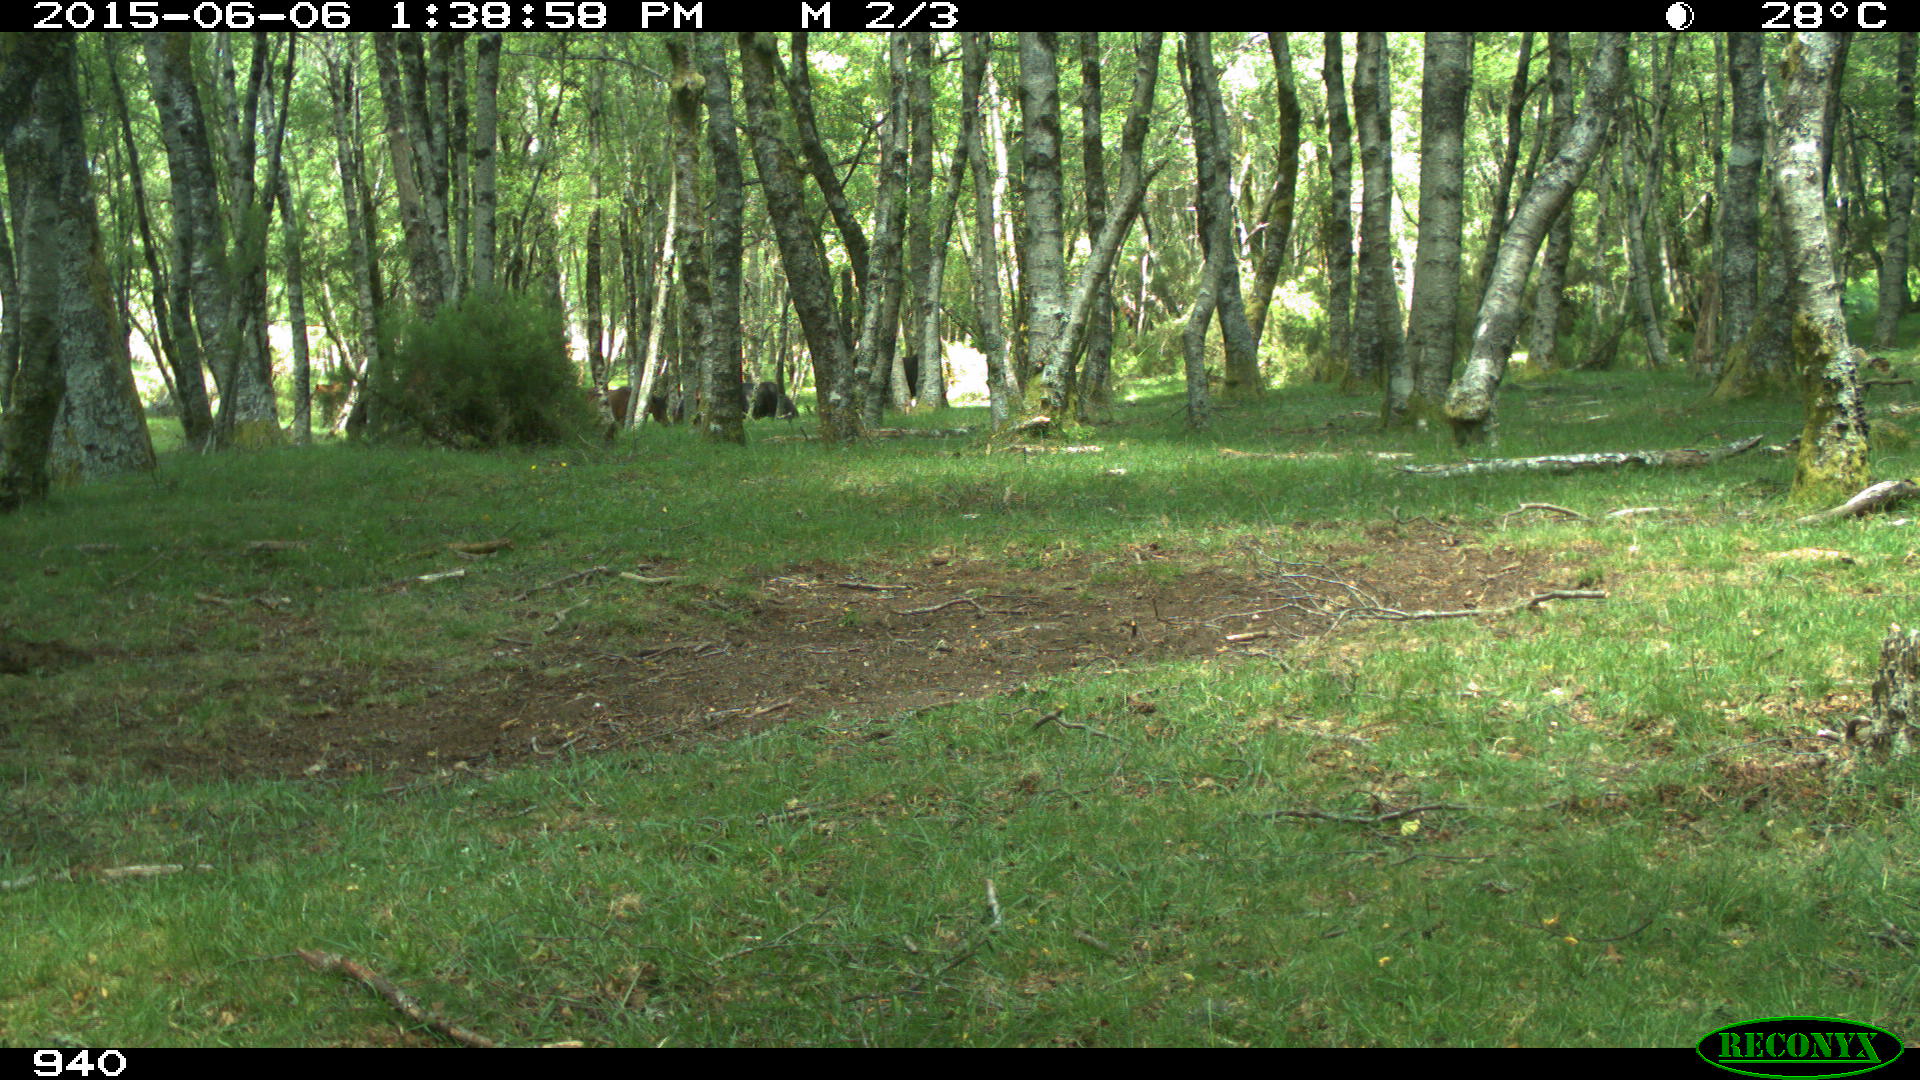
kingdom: Animalia
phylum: Chordata
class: Mammalia
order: Artiodactyla
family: Bovidae
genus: Bos
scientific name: Bos taurus
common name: Domesticated cattle
